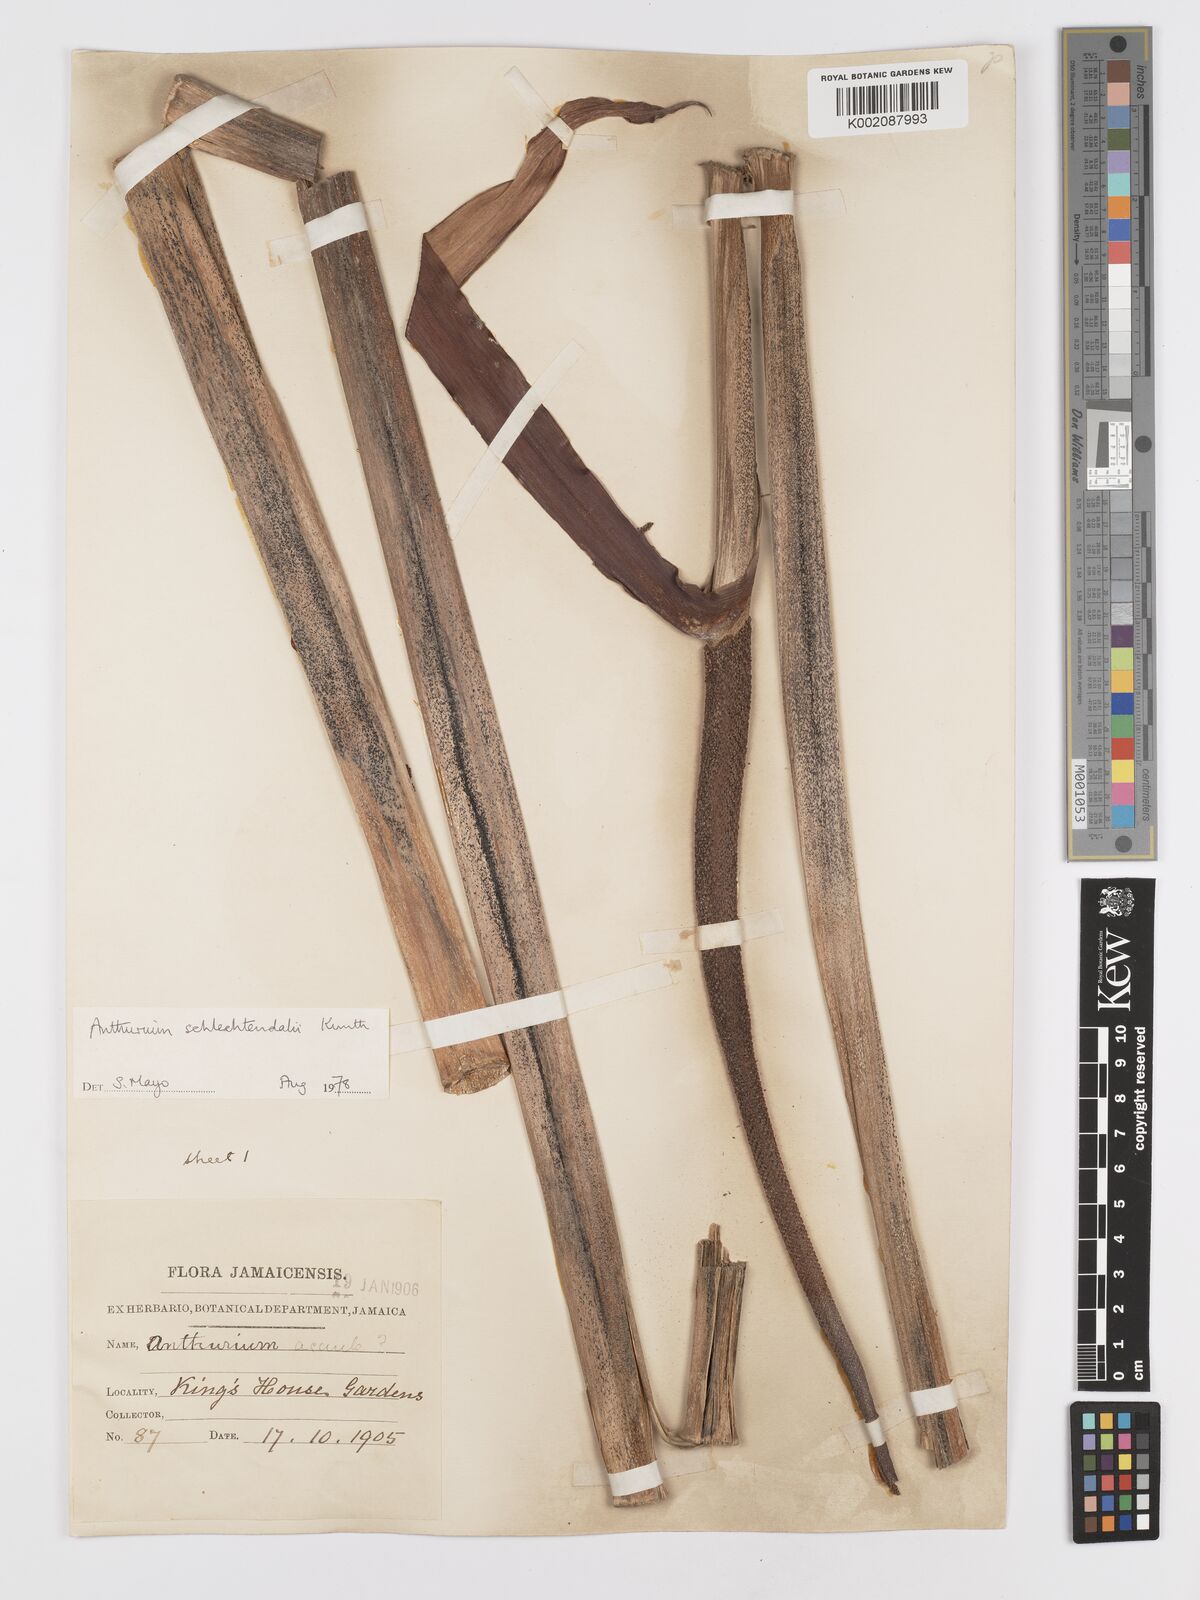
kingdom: Plantae
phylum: Tracheophyta
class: Liliopsida
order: Alismatales
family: Araceae
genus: Anthurium
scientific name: Anthurium schlechtendalii
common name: Laceleaf
